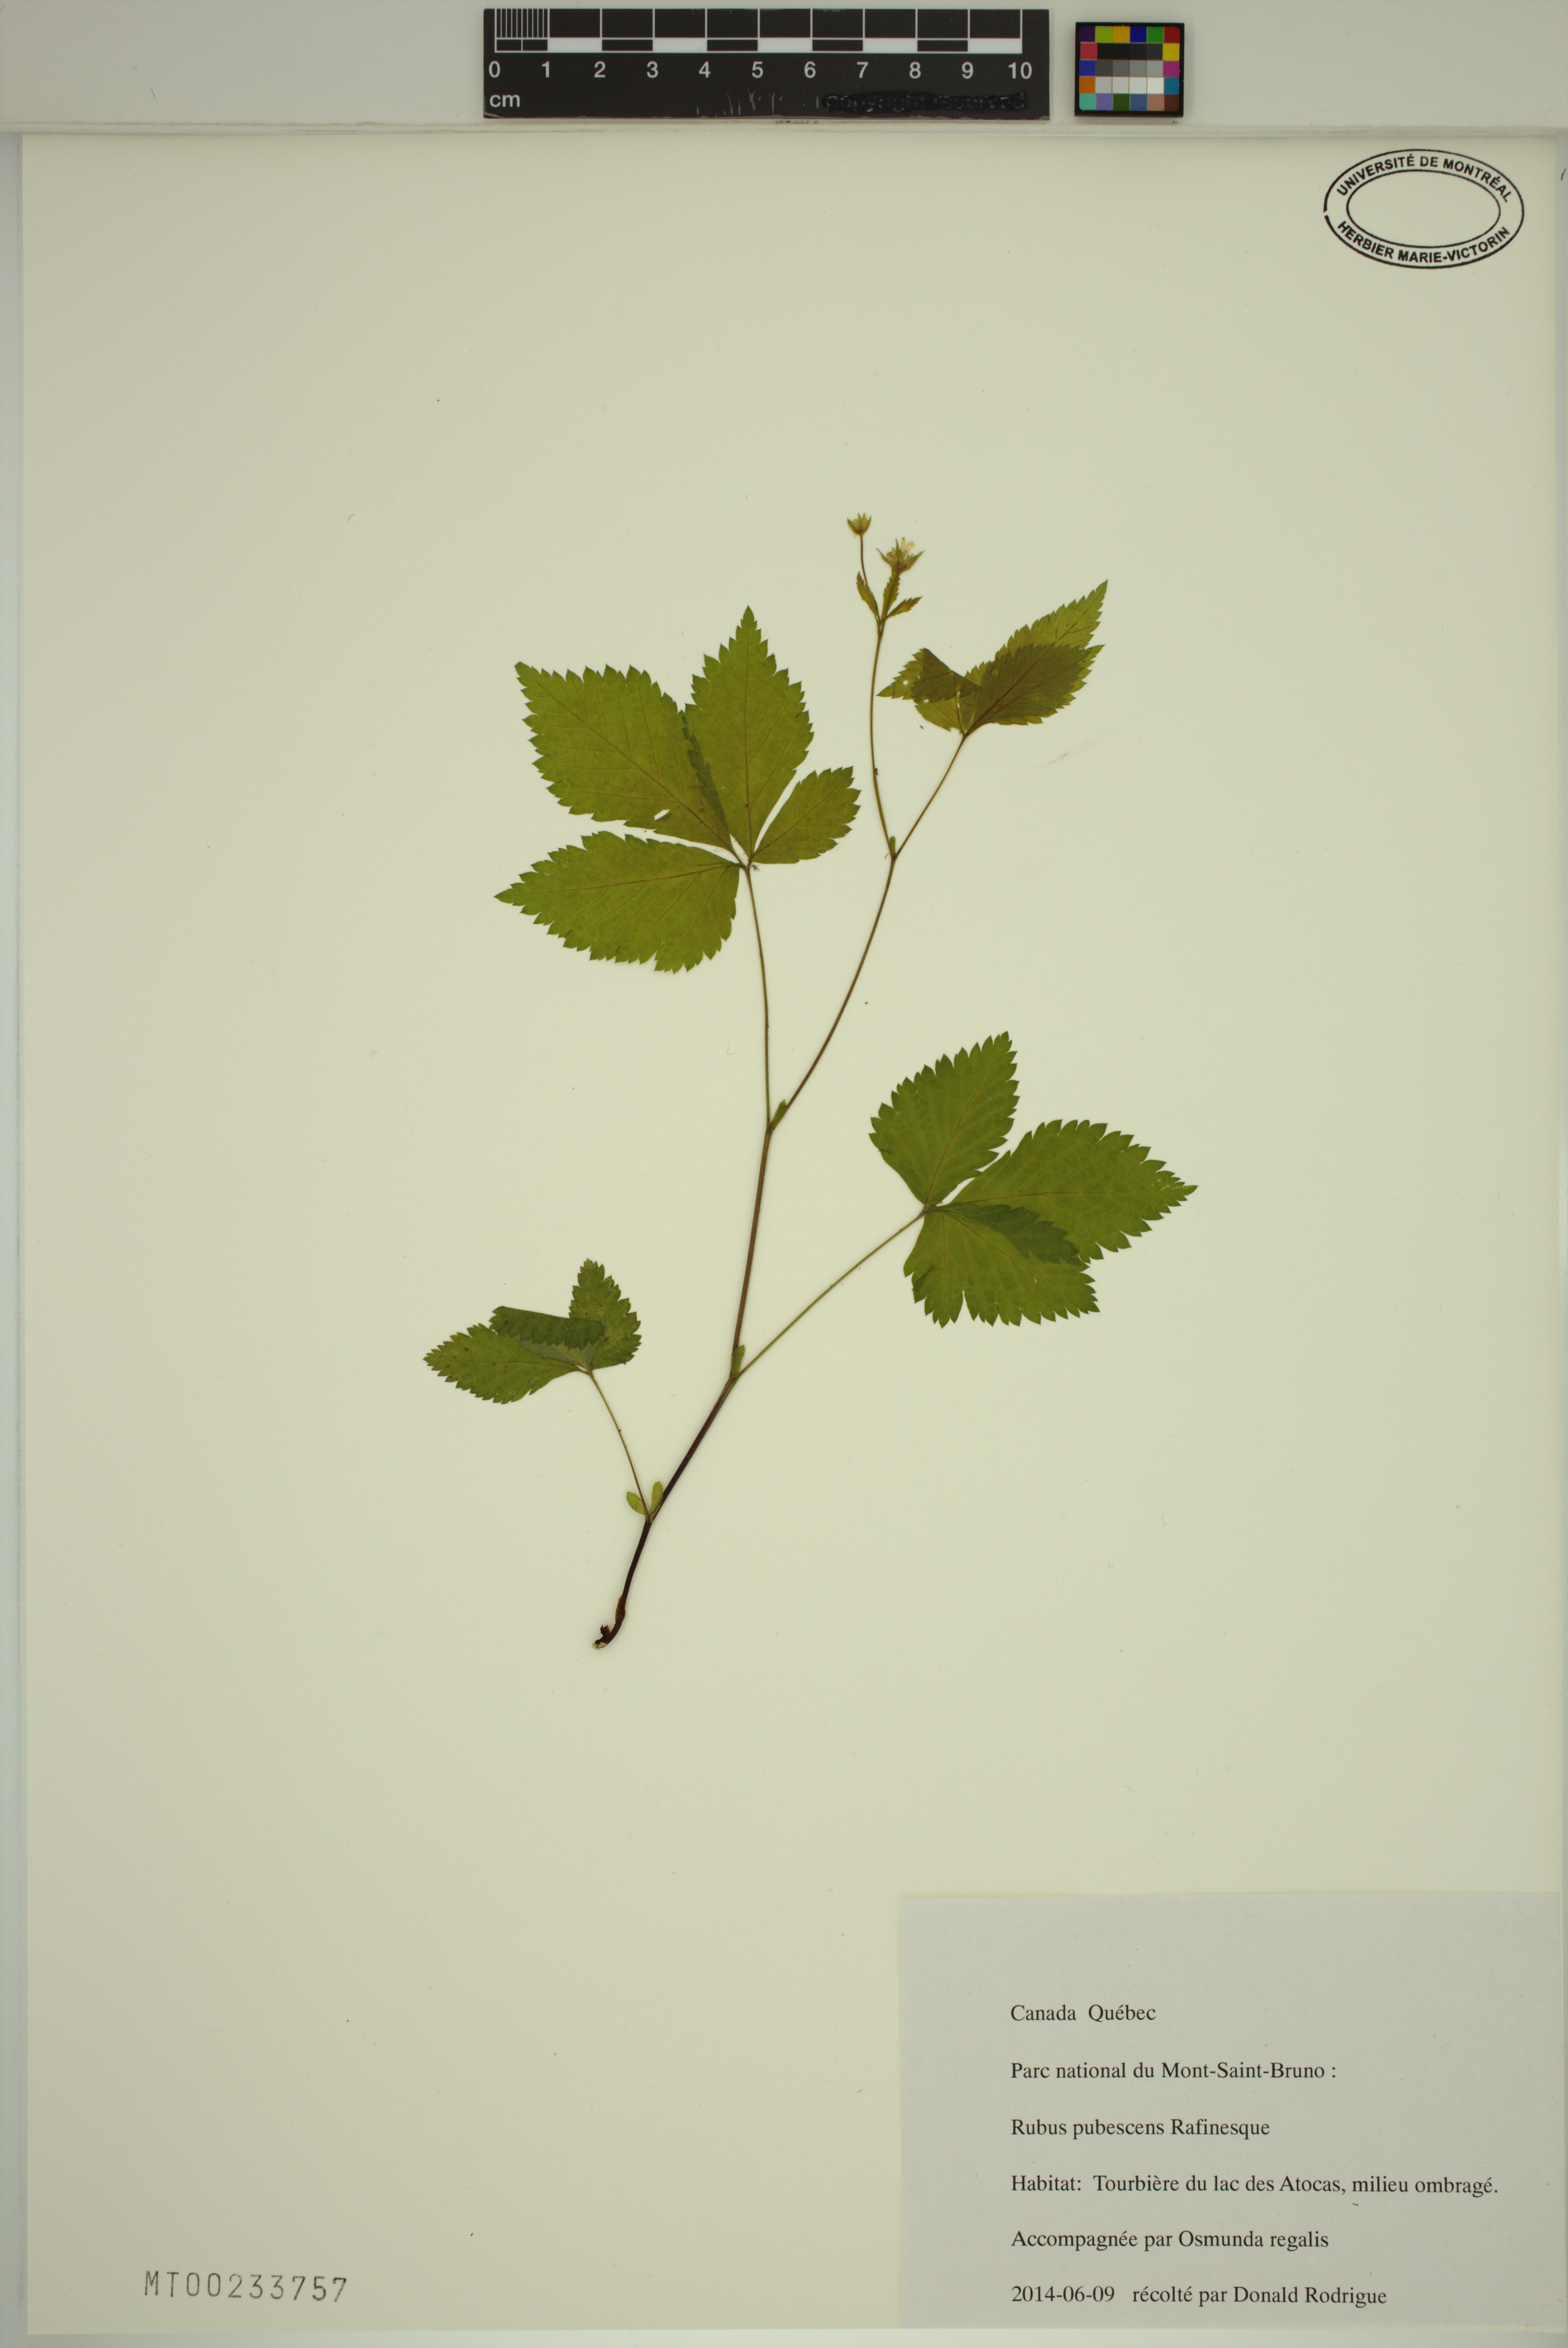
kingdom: Plantae
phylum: Tracheophyta
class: Magnoliopsida
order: Rosales
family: Rosaceae
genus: Rubus
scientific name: Rubus pubescens
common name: Dwarf raspberry
